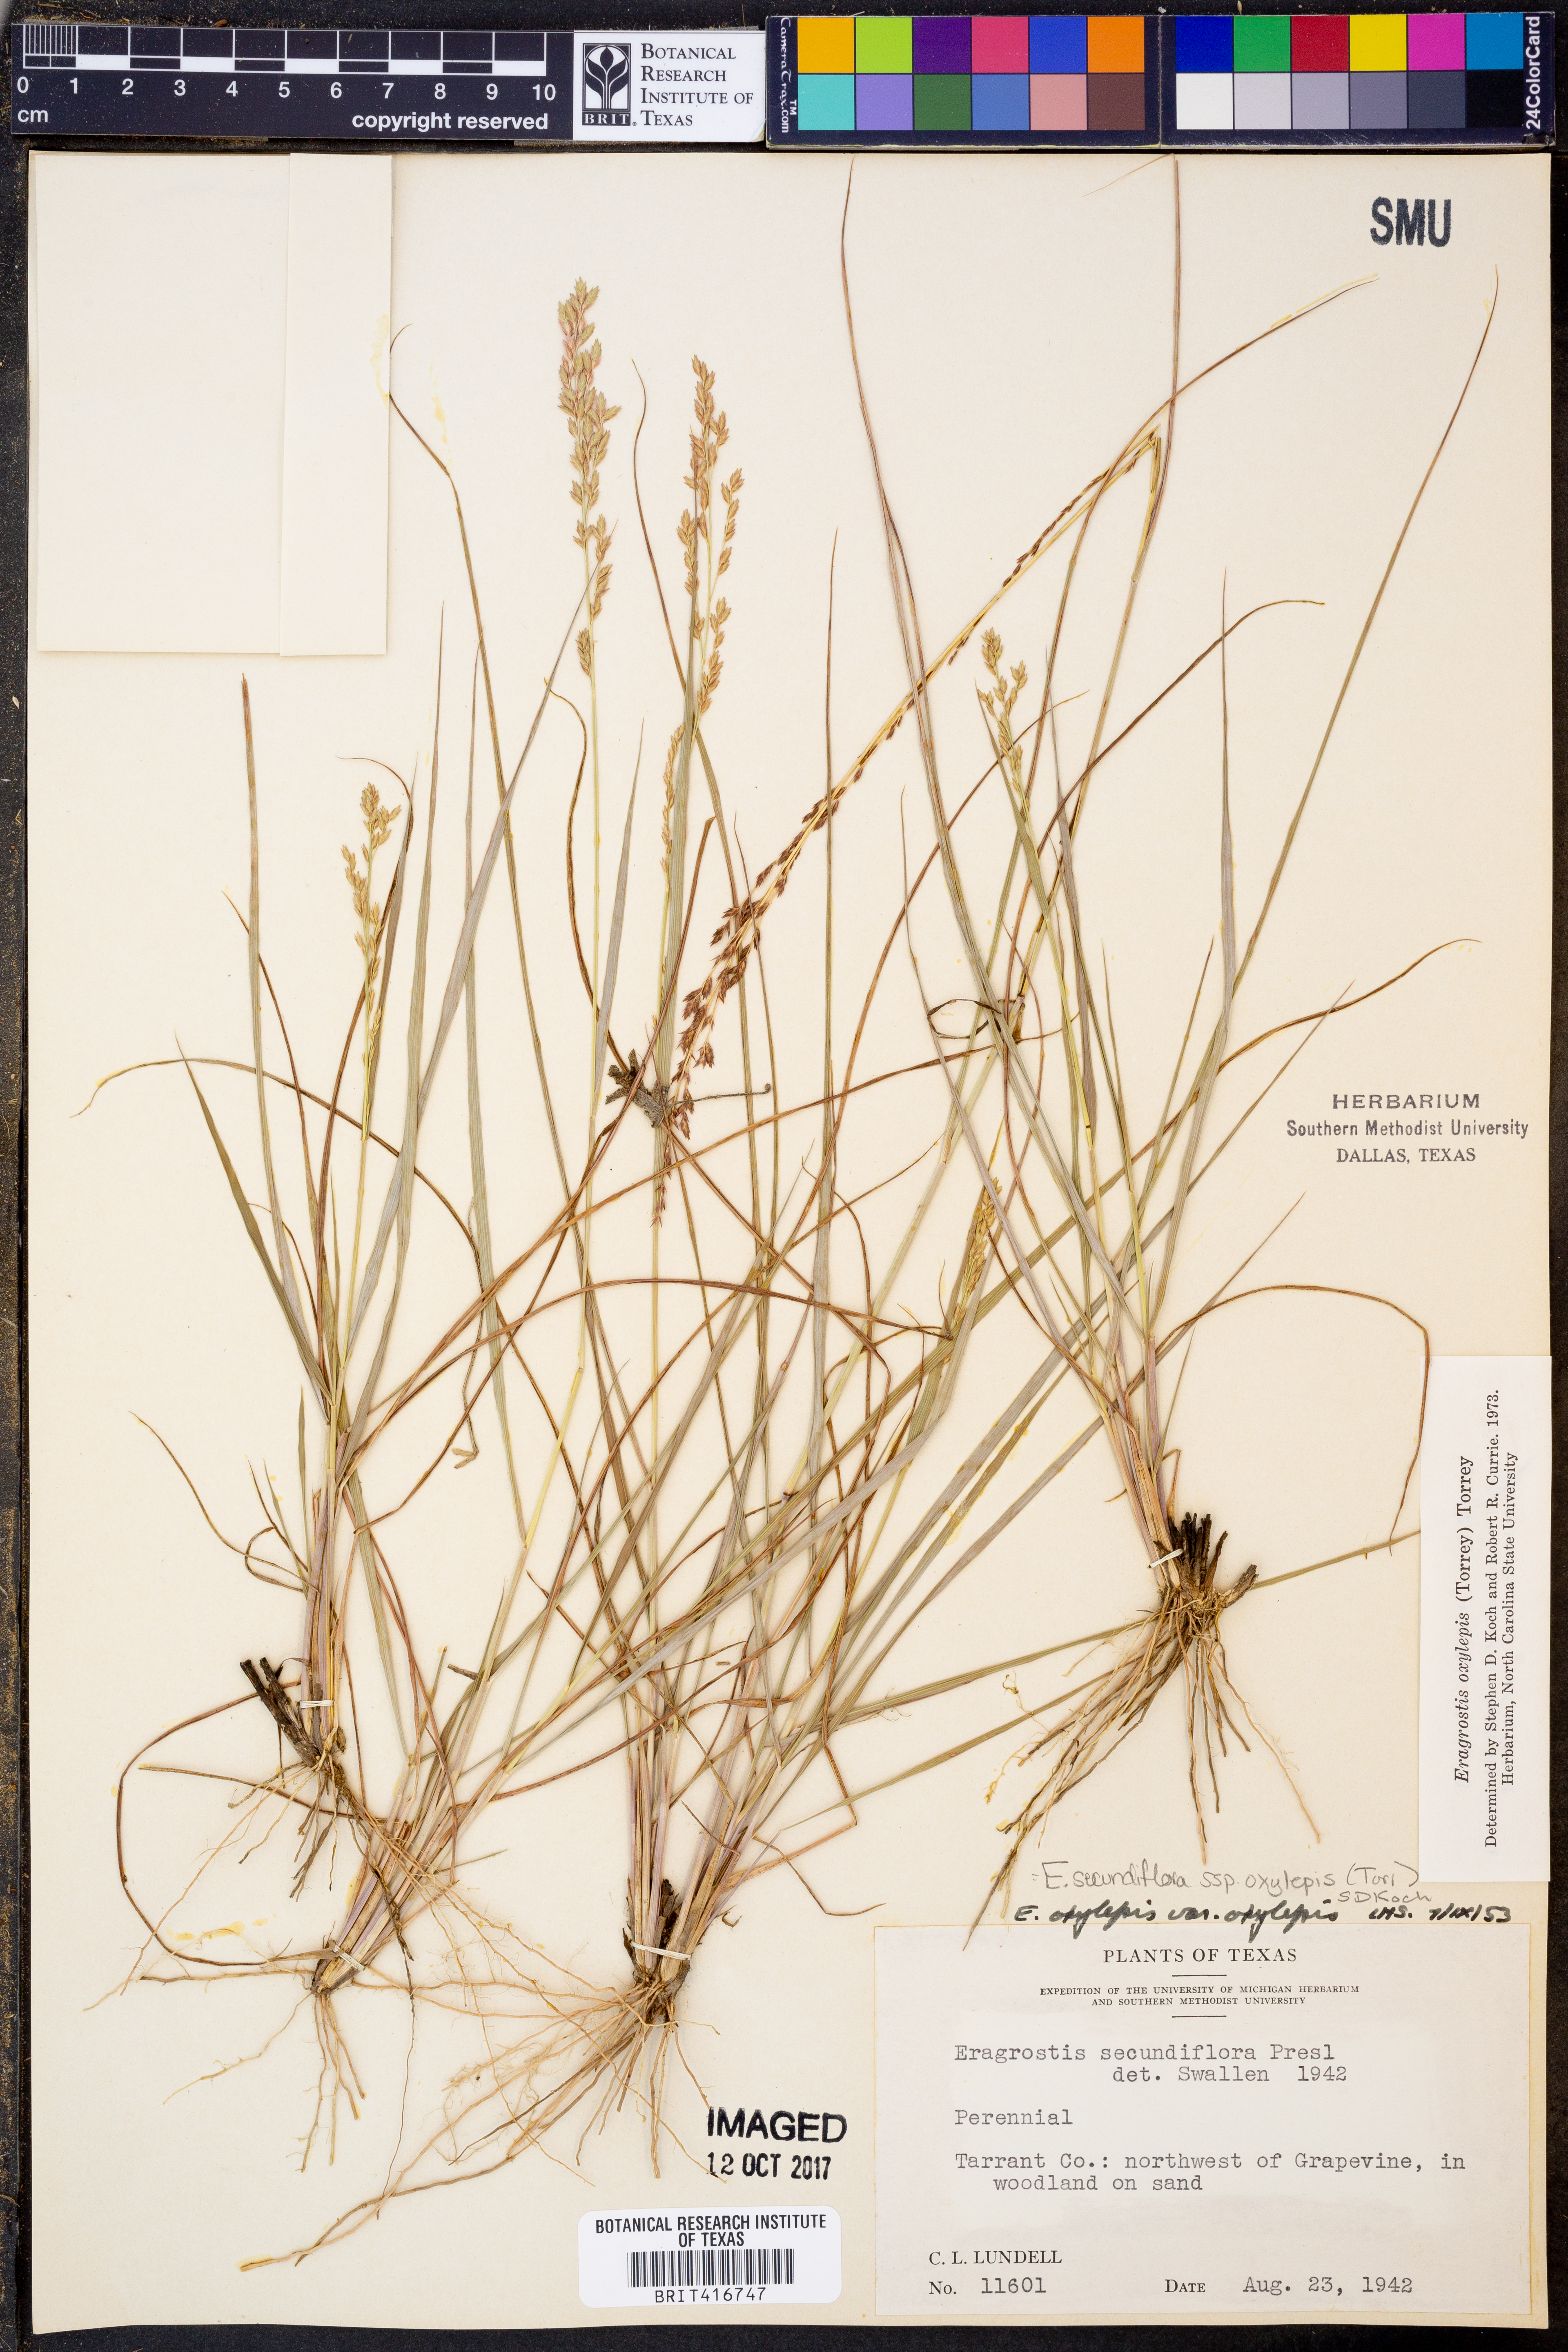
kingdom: Plantae
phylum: Tracheophyta
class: Liliopsida
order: Poales
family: Poaceae
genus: Eragrostis
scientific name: Eragrostis secundiflora
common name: Red love grass
